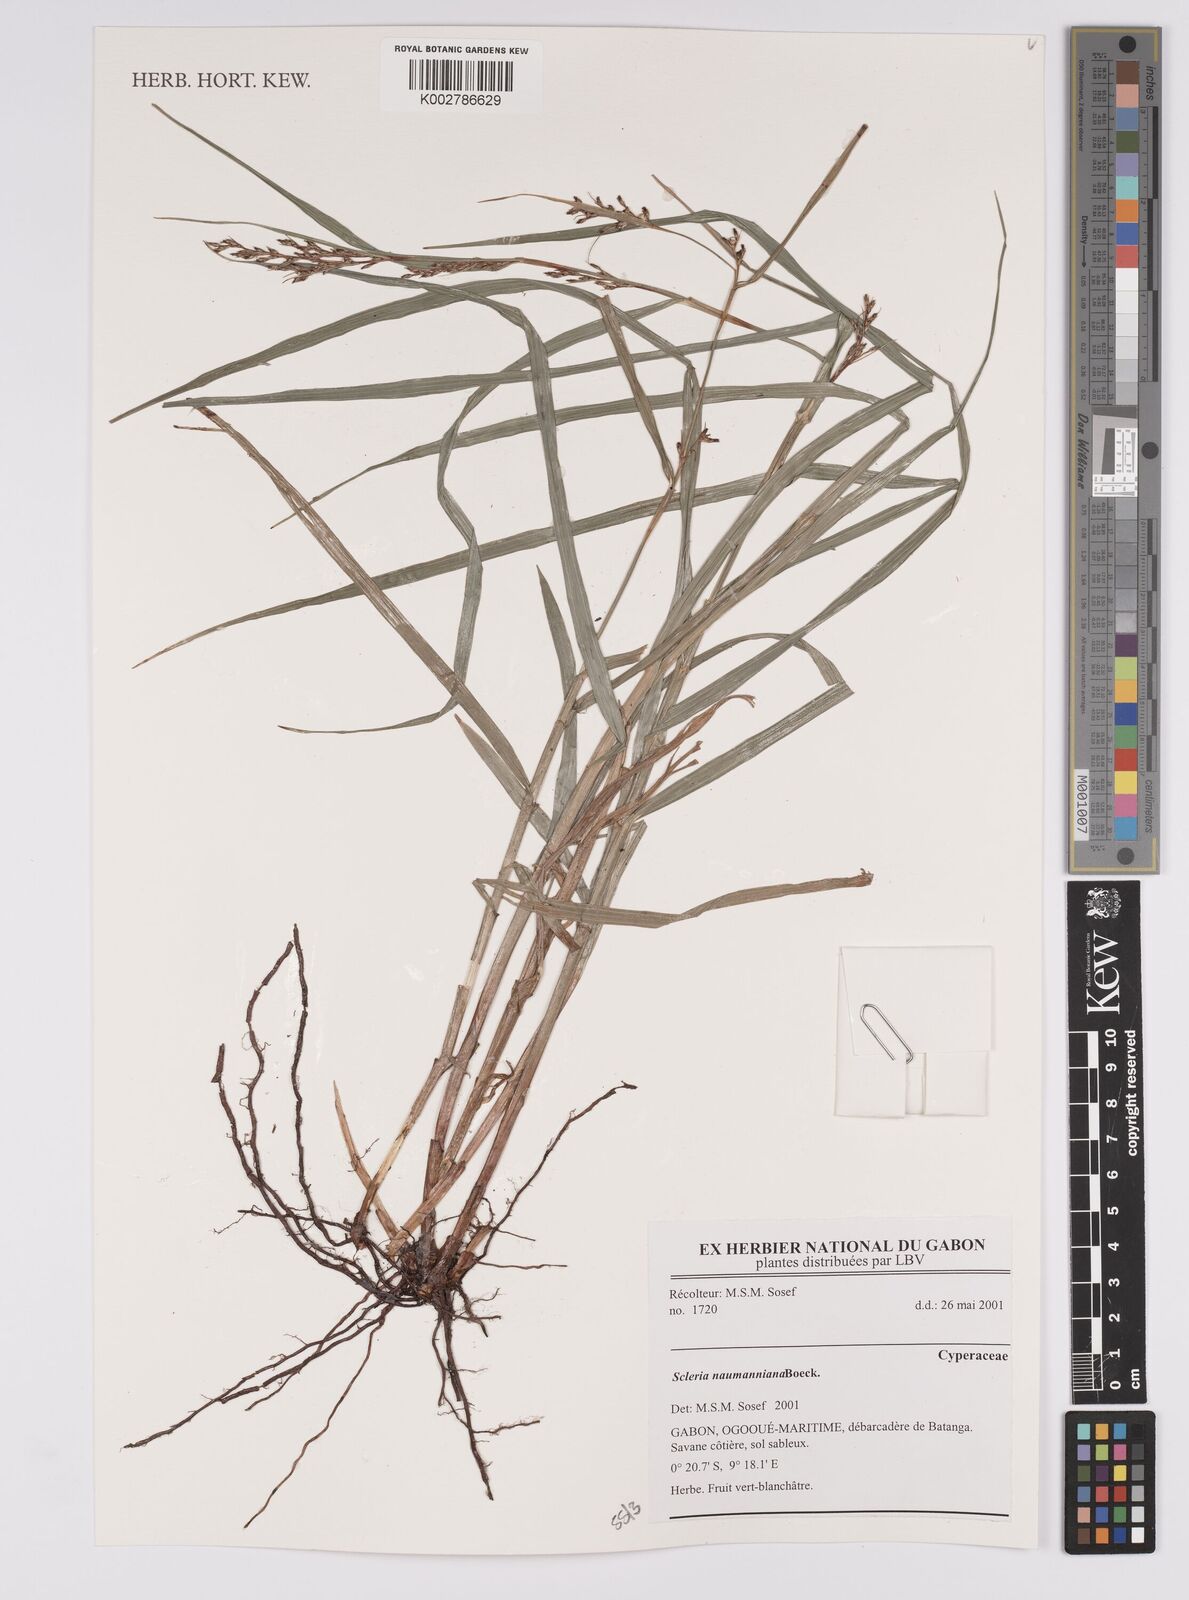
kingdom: Plantae
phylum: Tracheophyta
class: Liliopsida
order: Poales
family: Cyperaceae
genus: Scleria
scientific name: Scleria naumanniana
